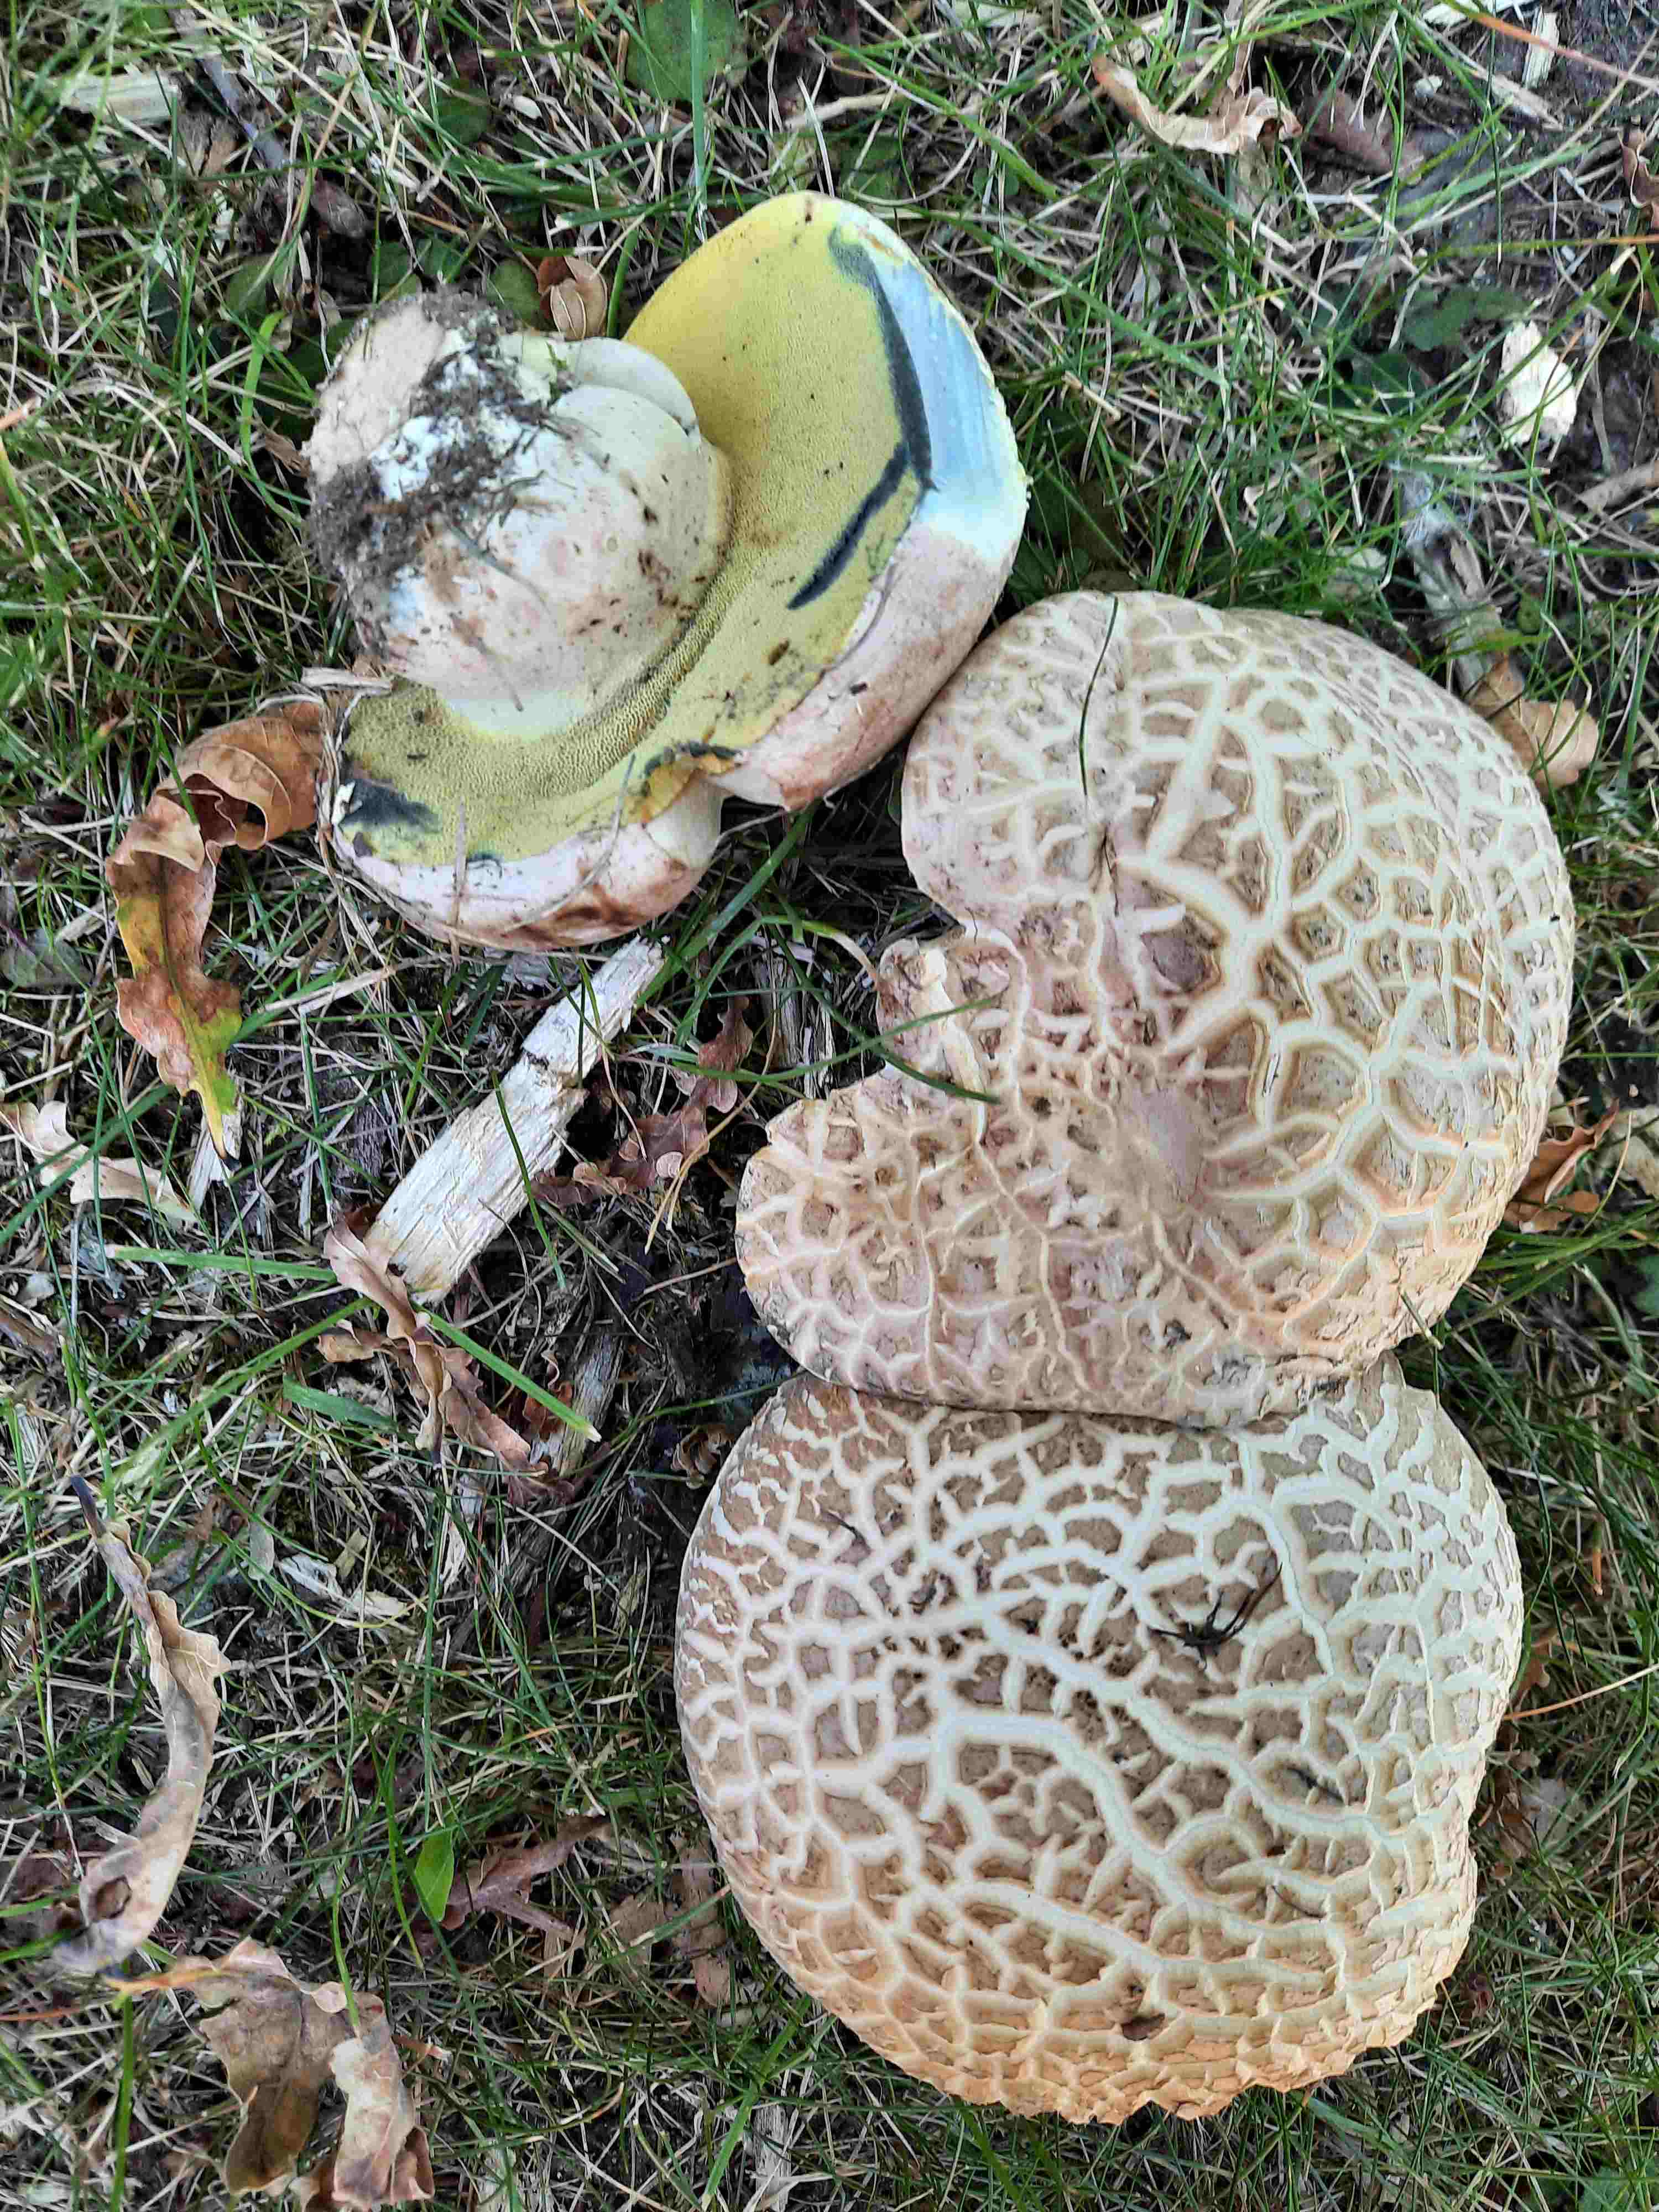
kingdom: Fungi
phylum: Basidiomycota
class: Agaricomycetes
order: Boletales
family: Boletaceae
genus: Caloboletus
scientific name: Caloboletus radicans
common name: rod-rørhat
